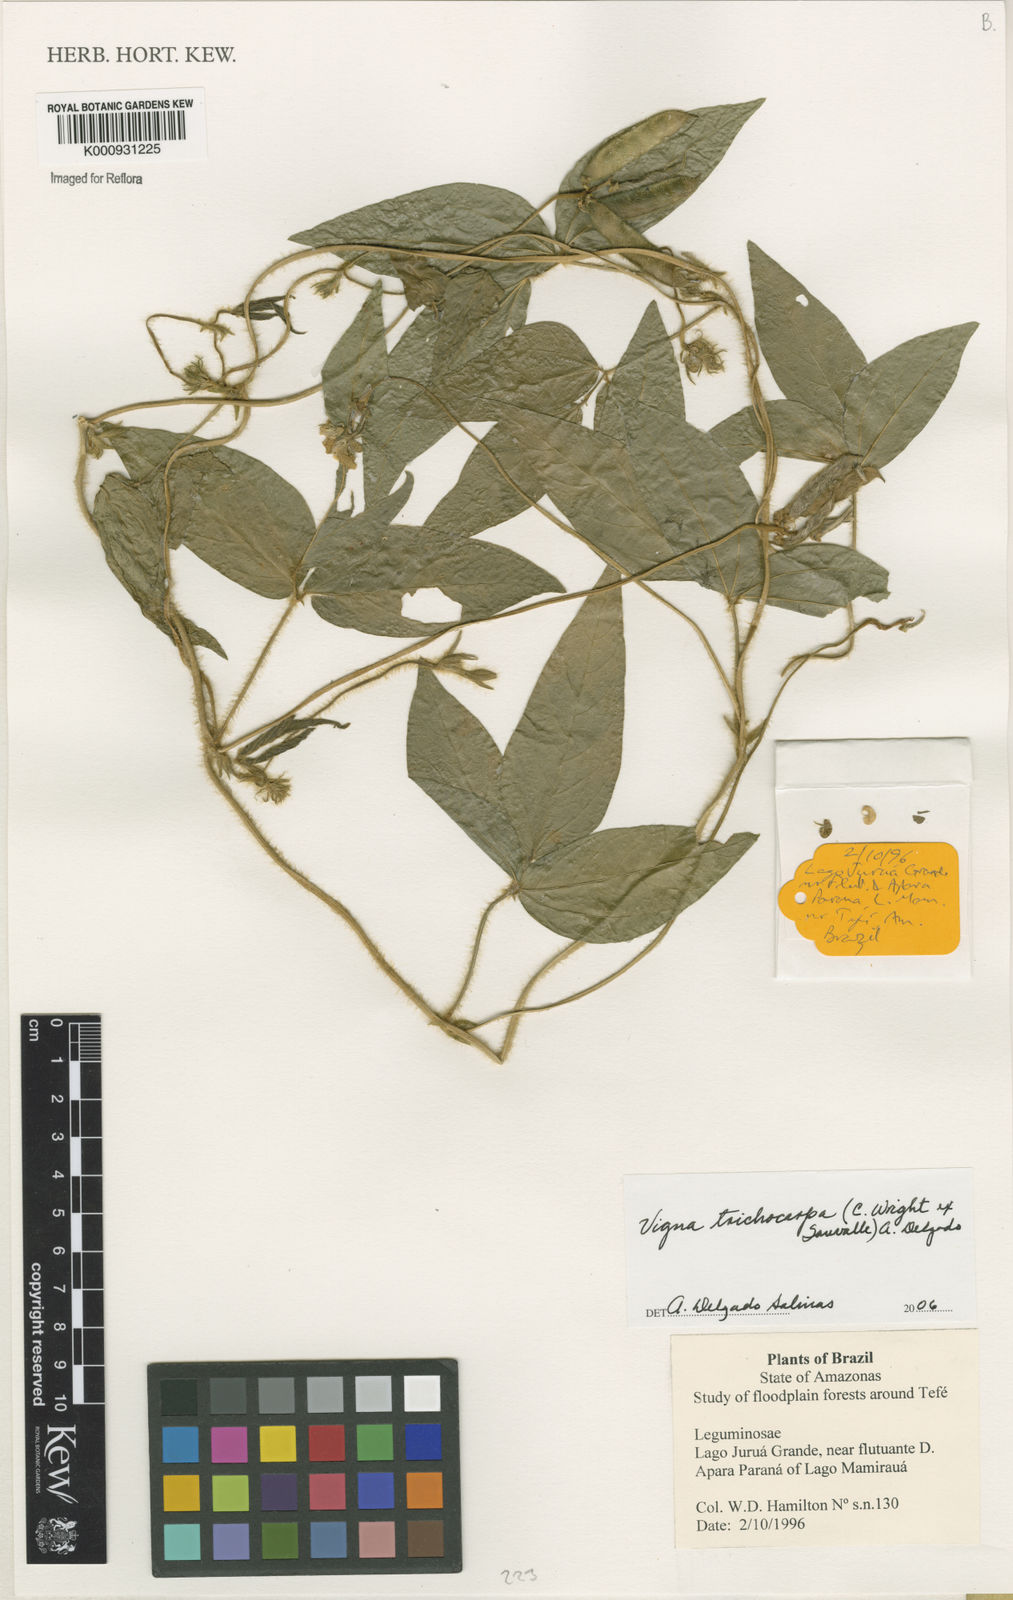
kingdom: Plantae
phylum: Tracheophyta
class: Magnoliopsida
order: Fabales
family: Fabaceae
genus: Vigna
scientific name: Vigna trichocarpa
